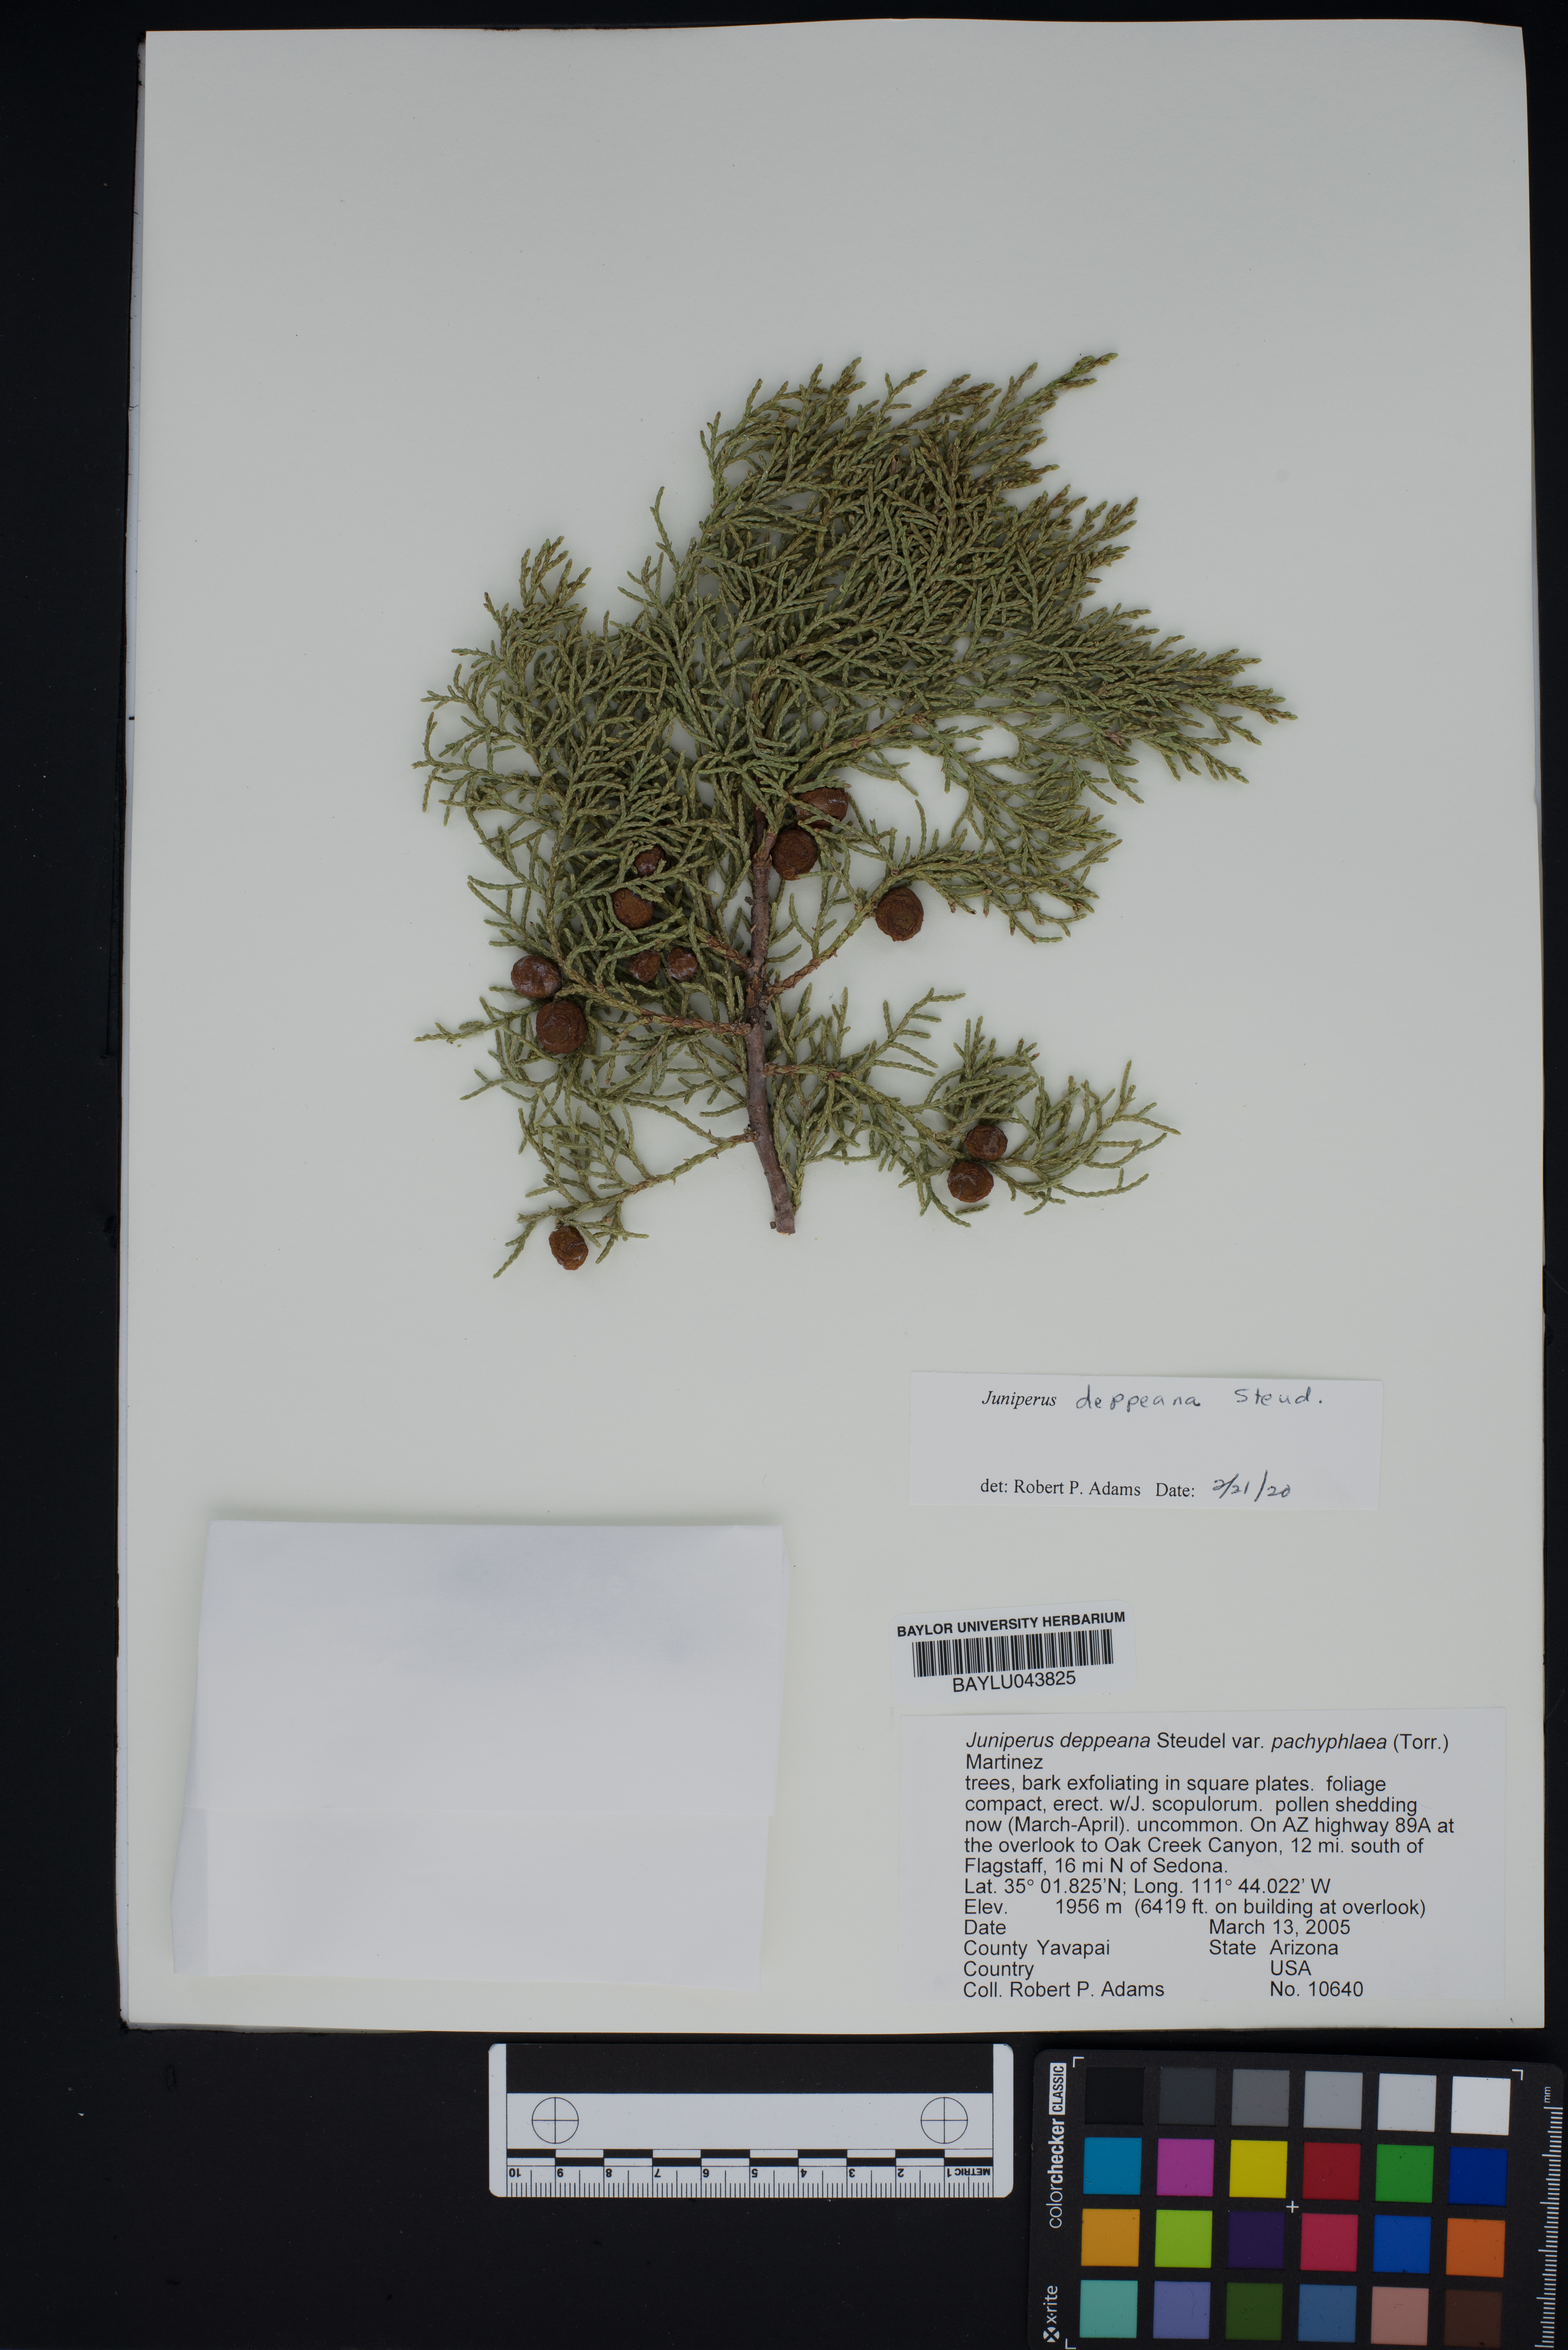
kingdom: Plantae
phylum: Tracheophyta
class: Pinopsida
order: Pinales
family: Cupressaceae
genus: Juniperus
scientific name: Juniperus deppeana
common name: Alligator juniper
